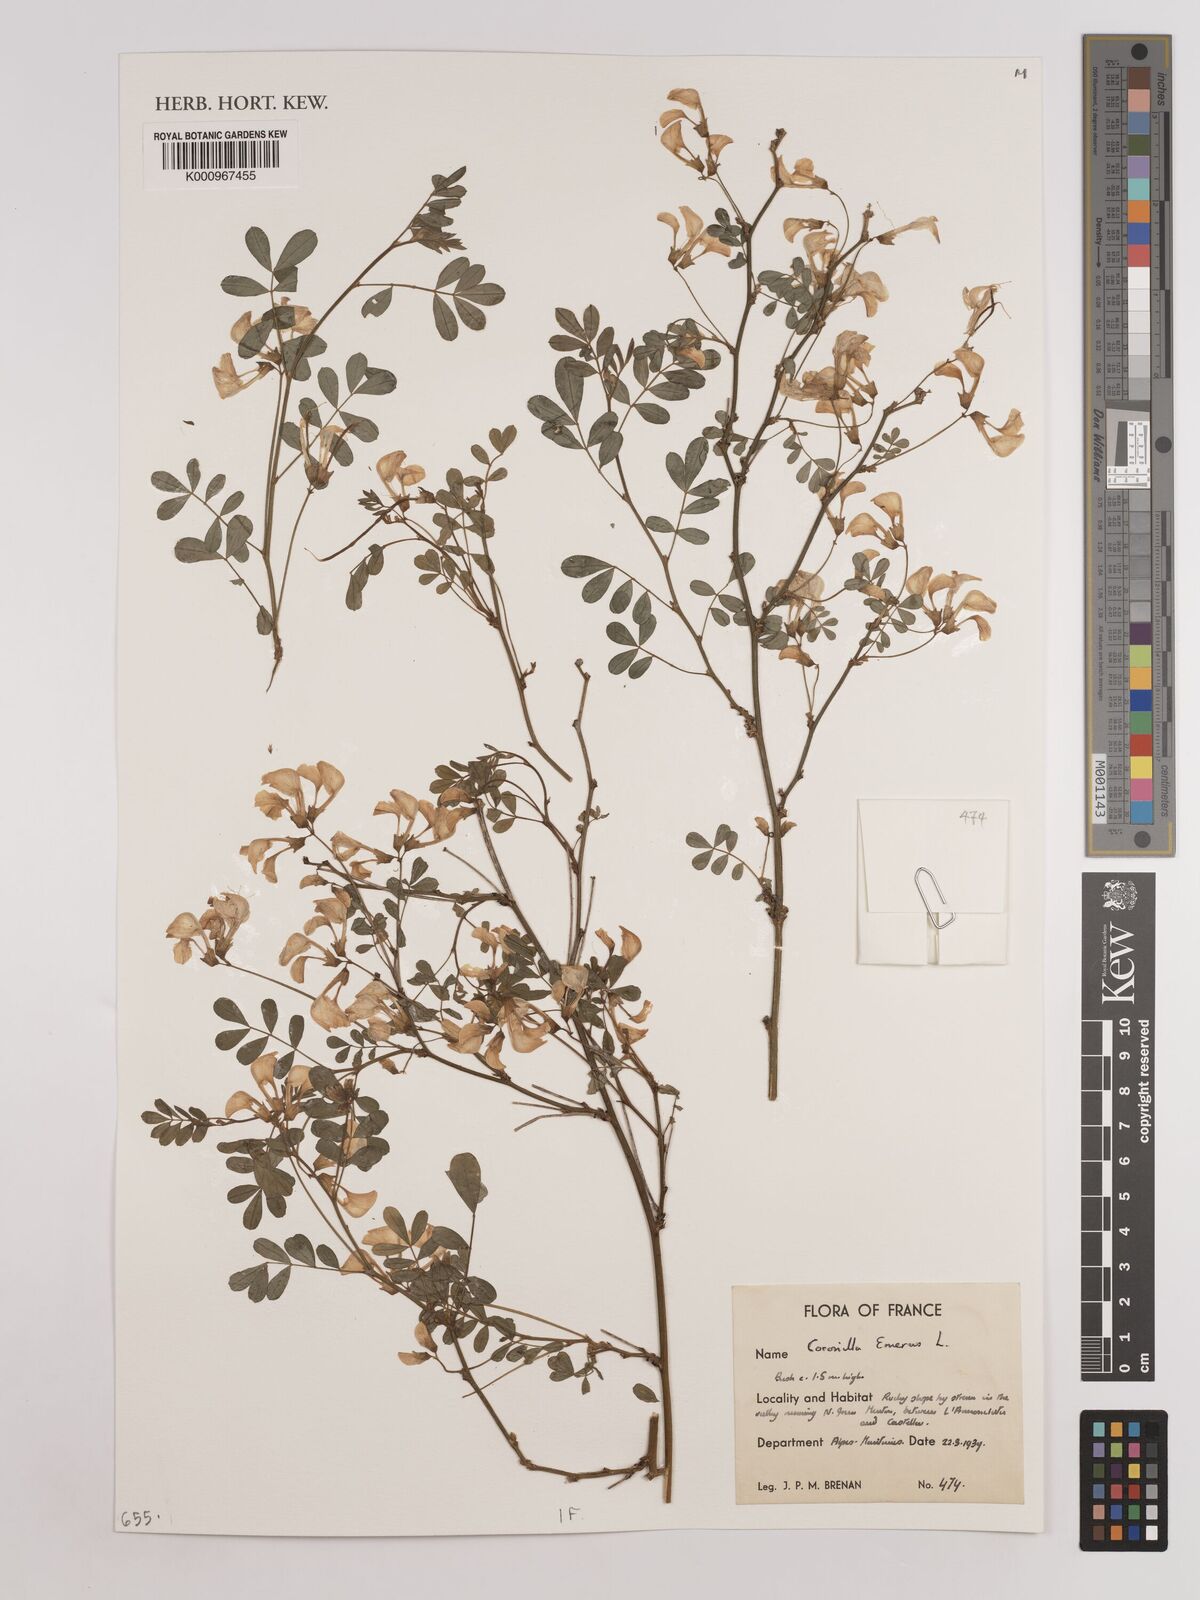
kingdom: Plantae
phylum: Tracheophyta
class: Magnoliopsida
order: Fabales
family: Fabaceae
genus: Hippocrepis
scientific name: Hippocrepis emerus
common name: Scorpion senna
